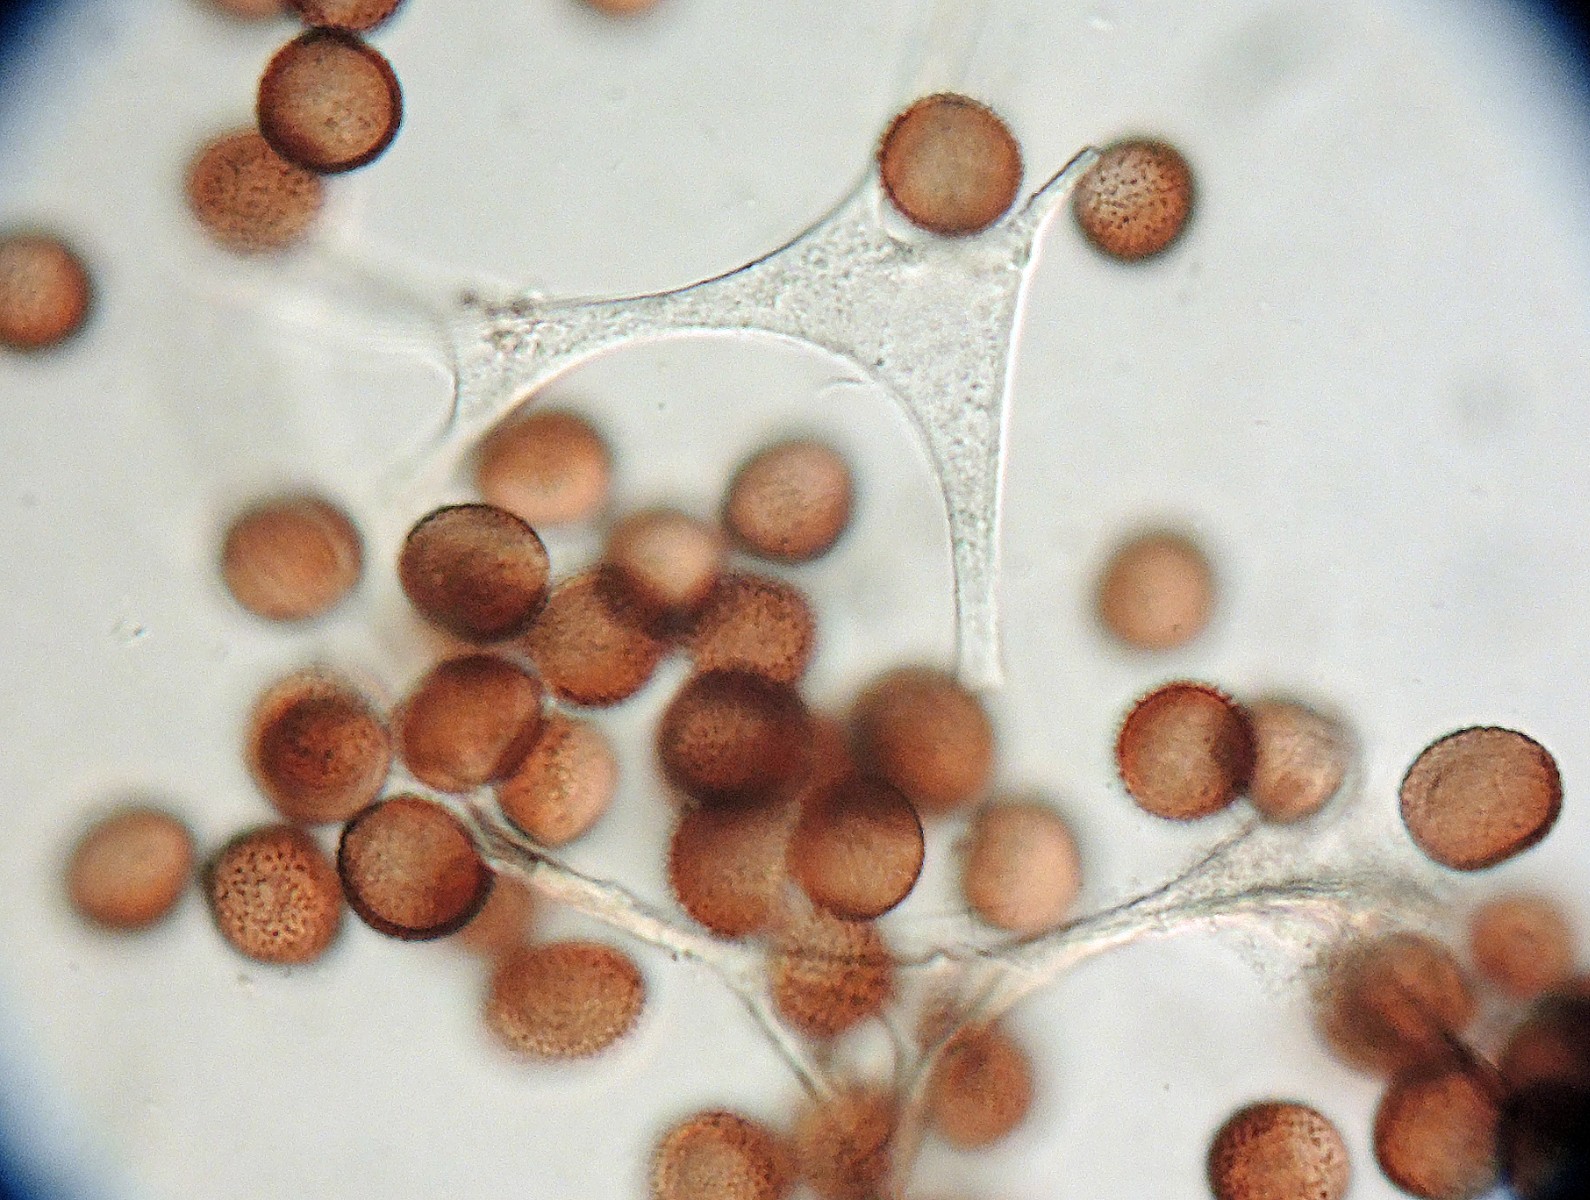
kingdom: Protozoa
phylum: Mycetozoa
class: Myxomycetes
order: Physarales
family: Physaraceae
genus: Leocarpus
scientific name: Leocarpus fragilis
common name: poleret glatfrø
